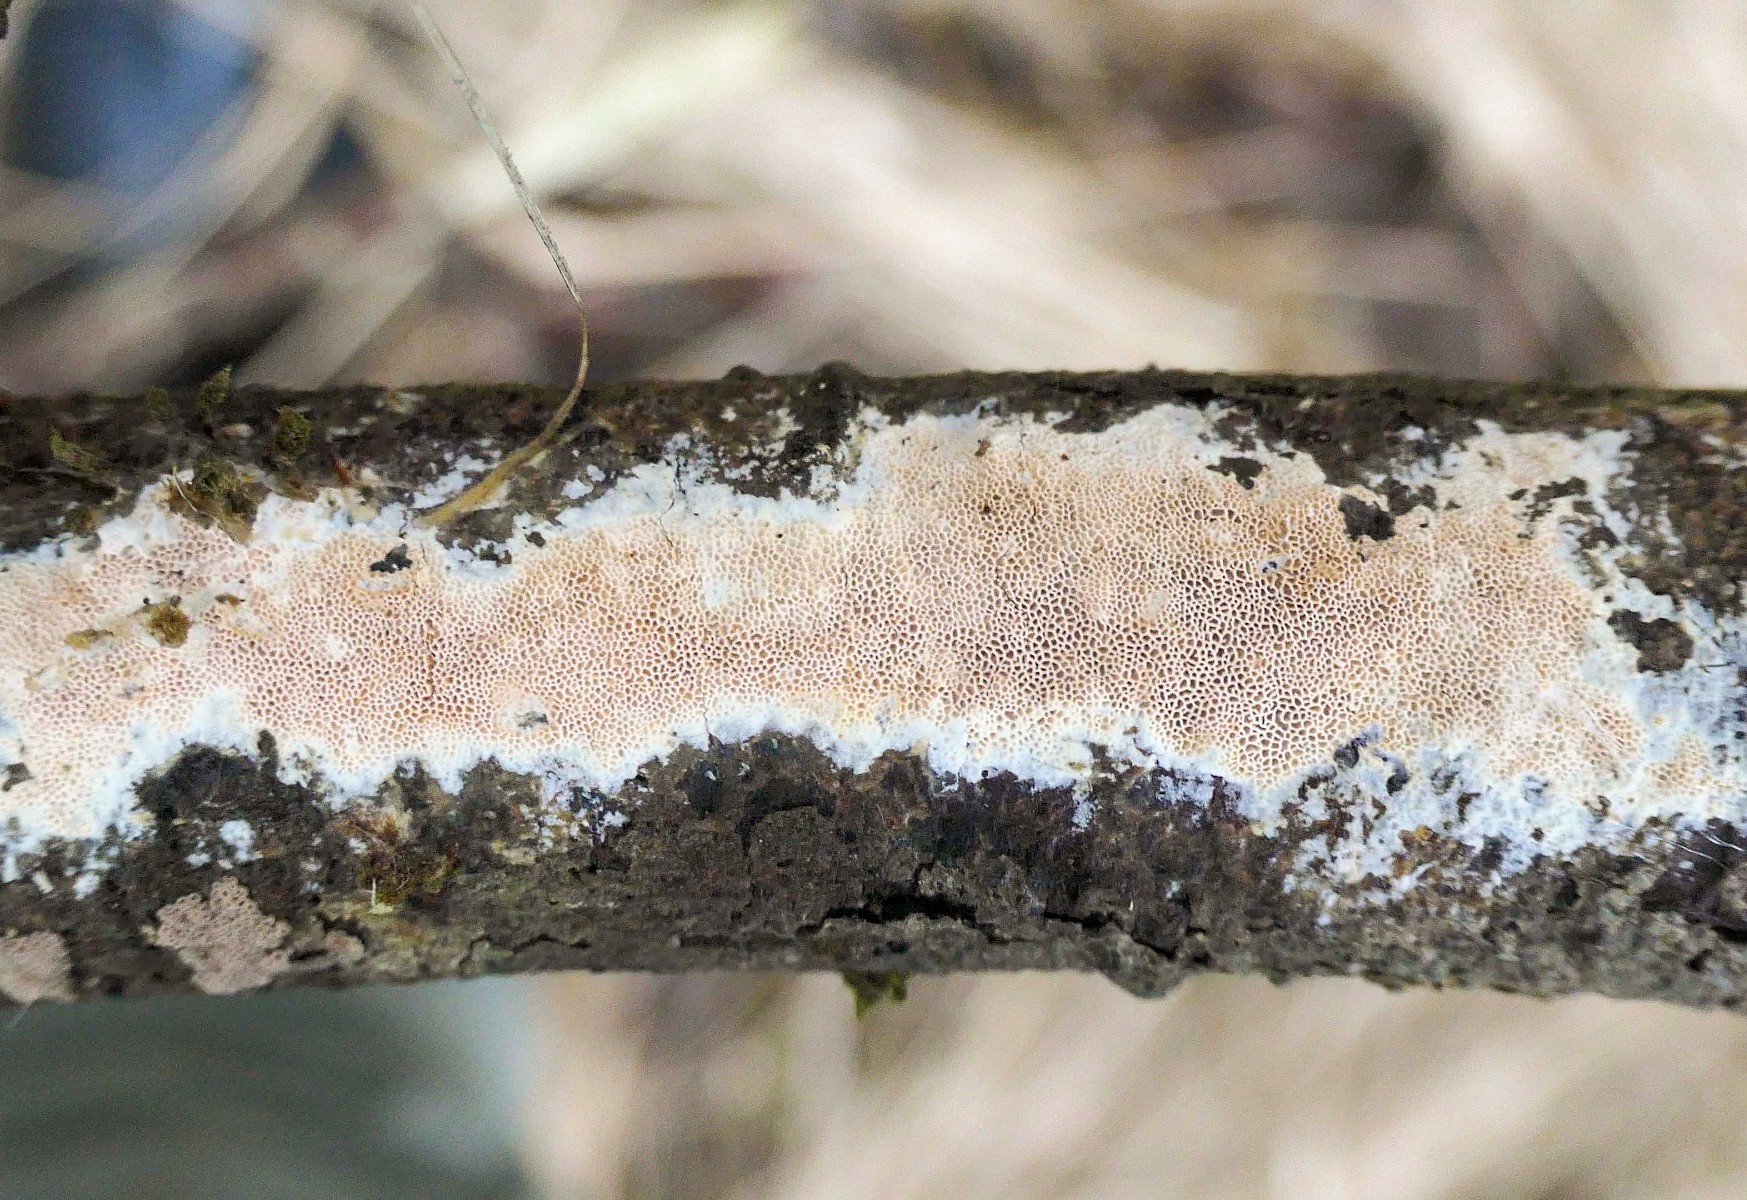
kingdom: Fungi
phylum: Basidiomycota
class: Agaricomycetes
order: Polyporales
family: Irpicaceae
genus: Resiniporus
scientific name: Resiniporus resinascens
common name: trist pastelporesvamp
